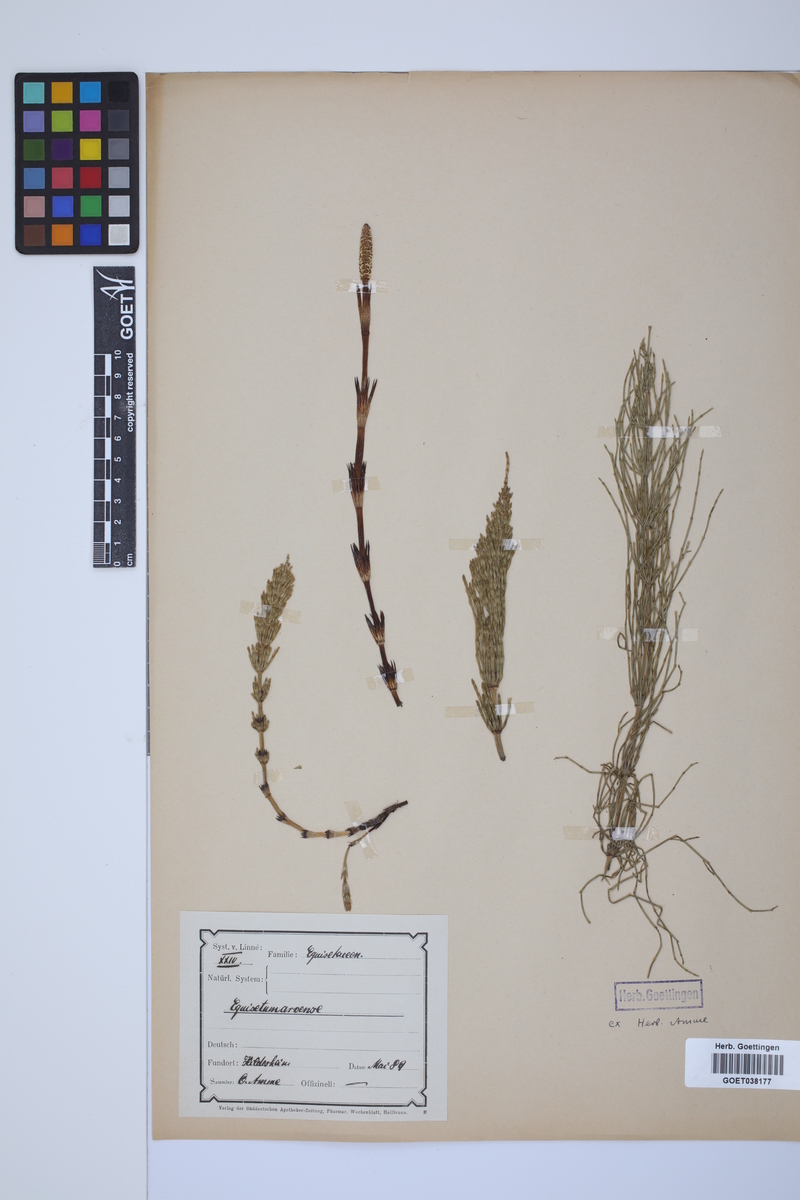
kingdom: Plantae
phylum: Tracheophyta
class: Polypodiopsida
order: Equisetales
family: Equisetaceae
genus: Equisetum
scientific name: Equisetum arvense
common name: Field horsetail
